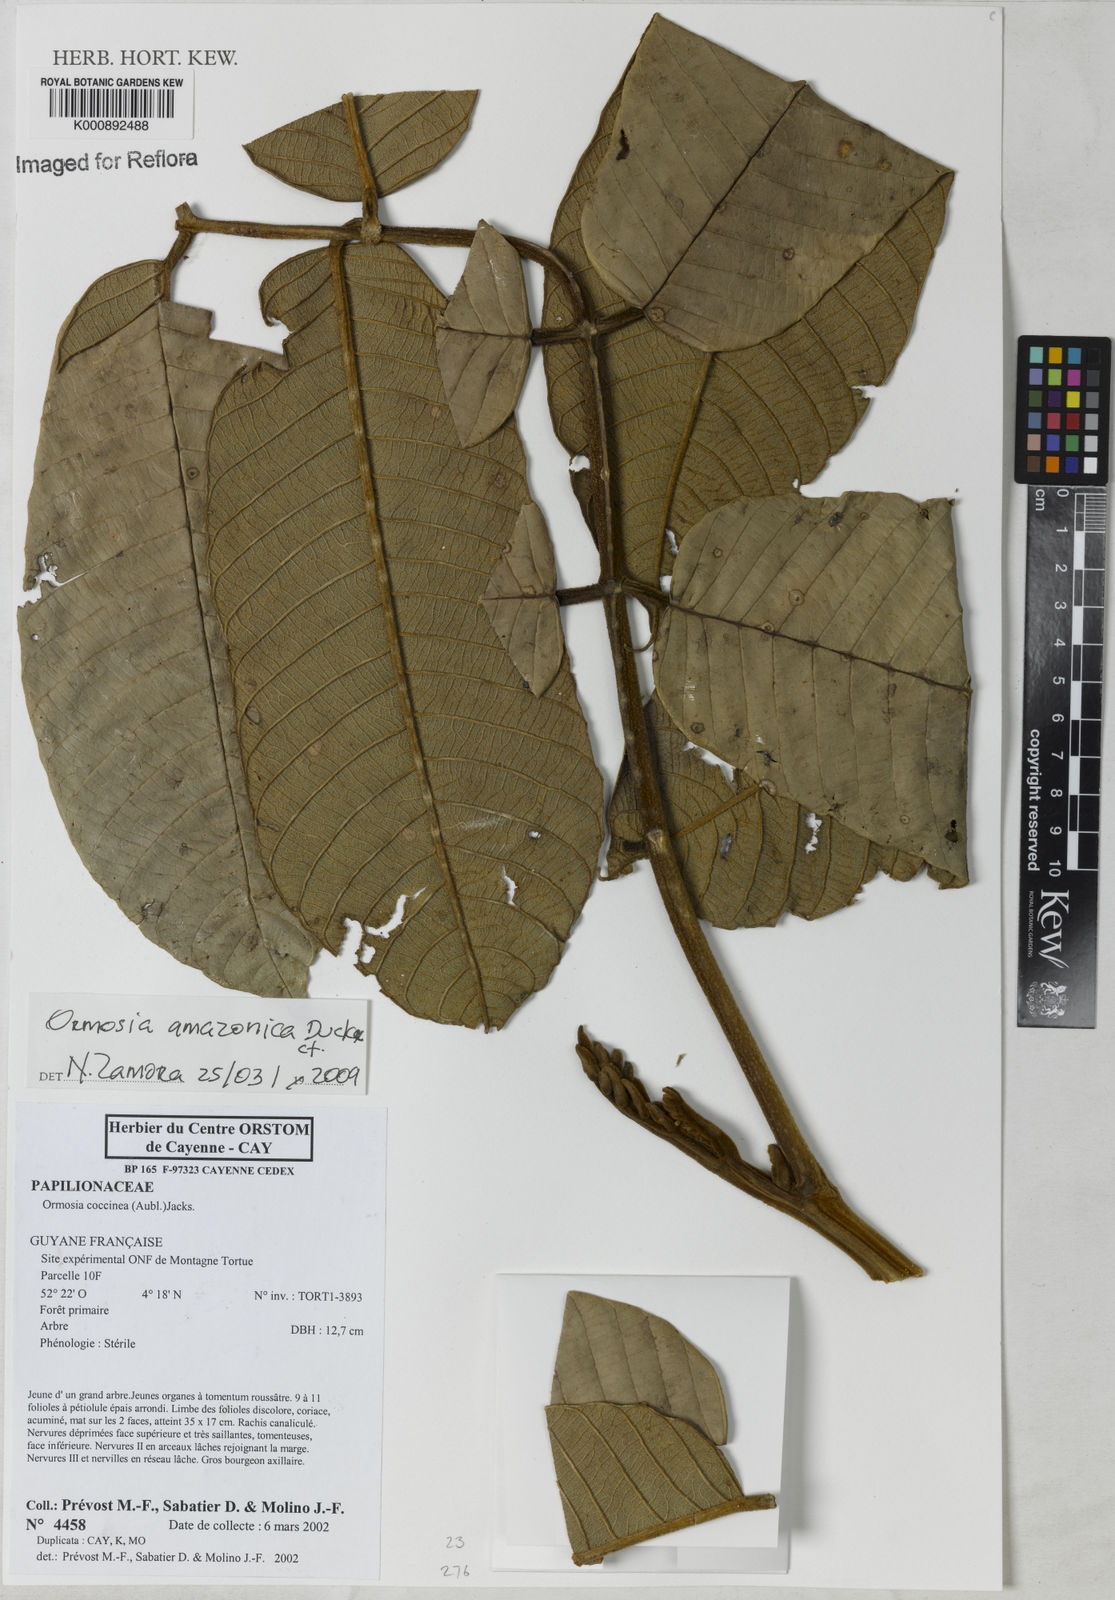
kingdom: Plantae
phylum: Tracheophyta
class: Magnoliopsida
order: Fabales
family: Fabaceae
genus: Ormosia
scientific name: Ormosia amazonica
